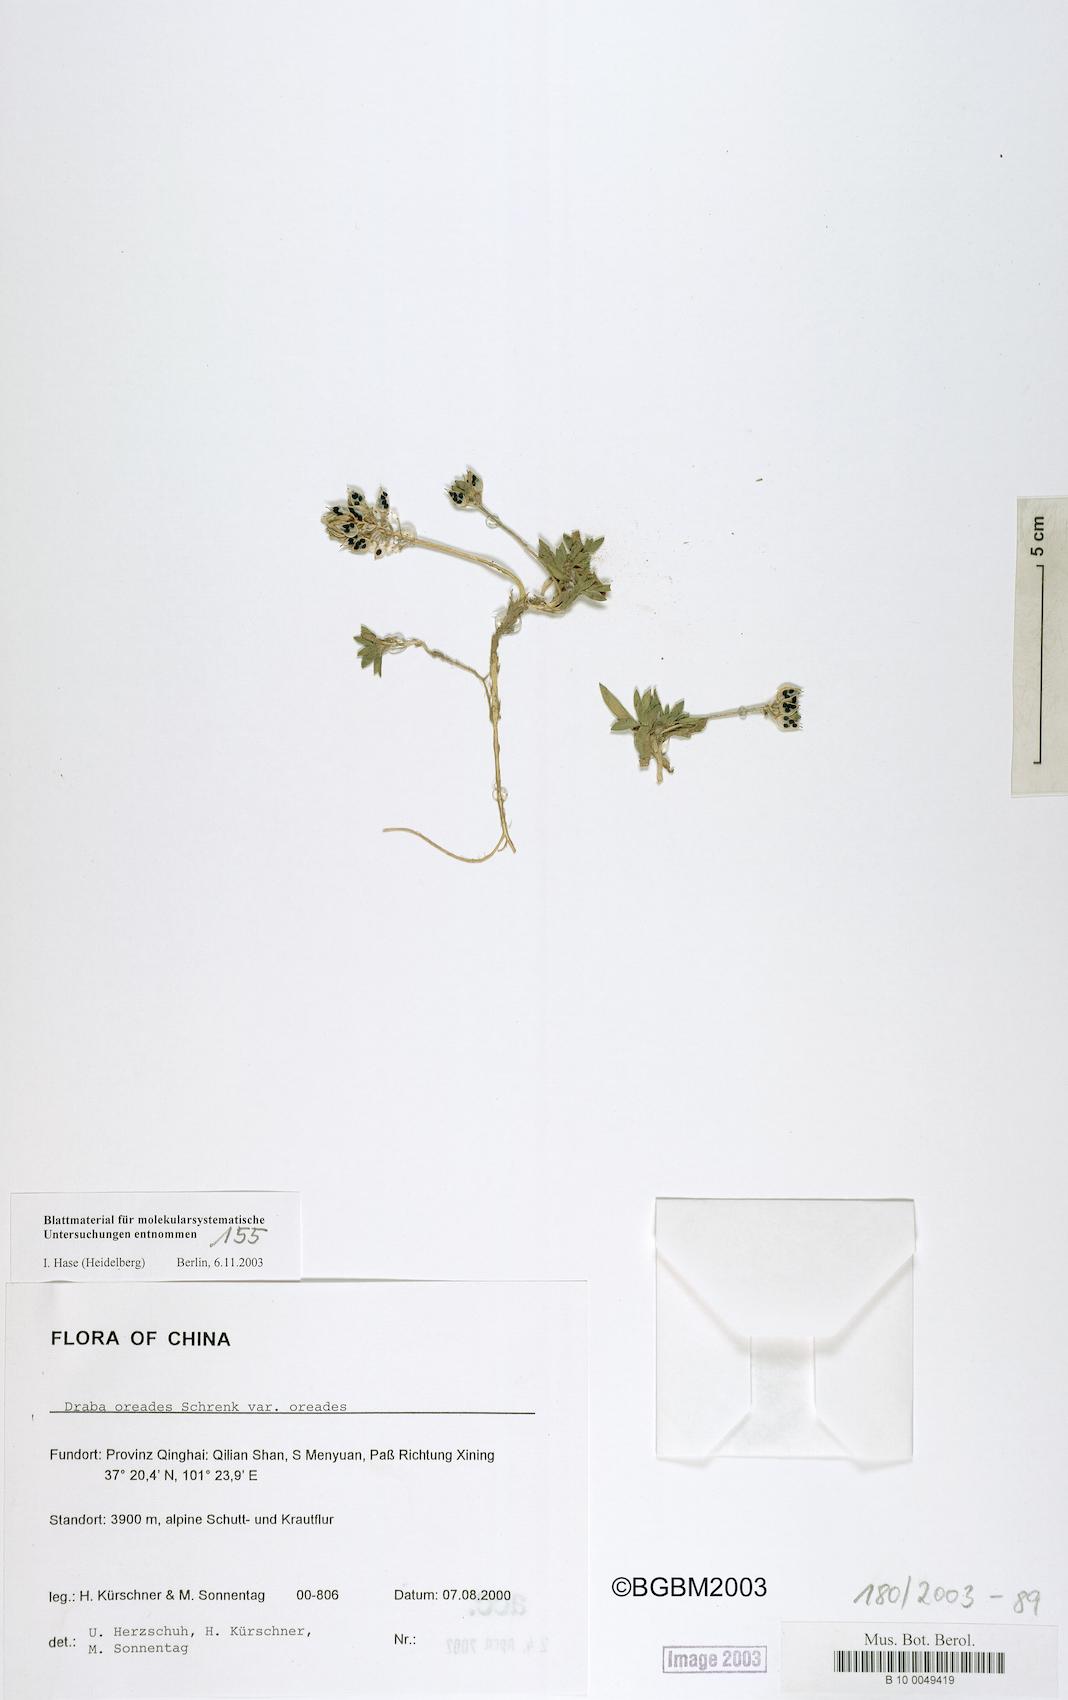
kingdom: Plantae
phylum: Tracheophyta
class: Magnoliopsida
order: Brassicales
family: Brassicaceae
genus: Draba
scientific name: Draba oreades
